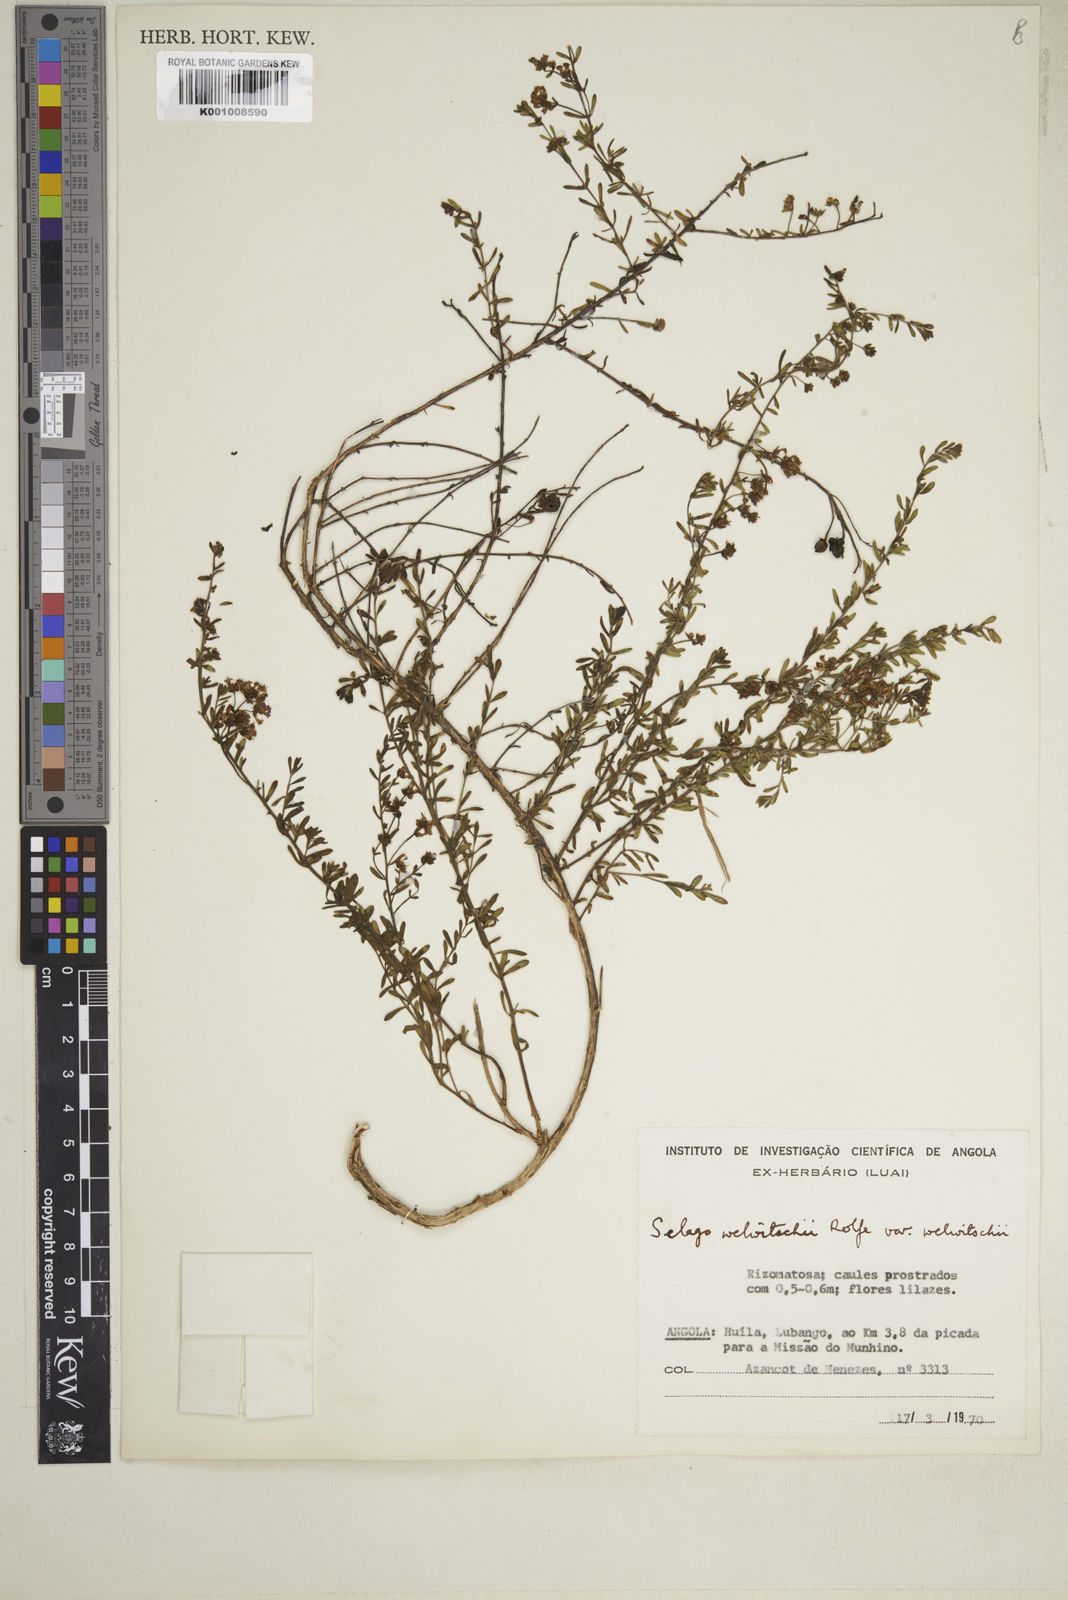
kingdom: Plantae
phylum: Tracheophyta
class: Magnoliopsida
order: Lamiales
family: Scrophulariaceae
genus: Selago
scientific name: Selago welwitschii
